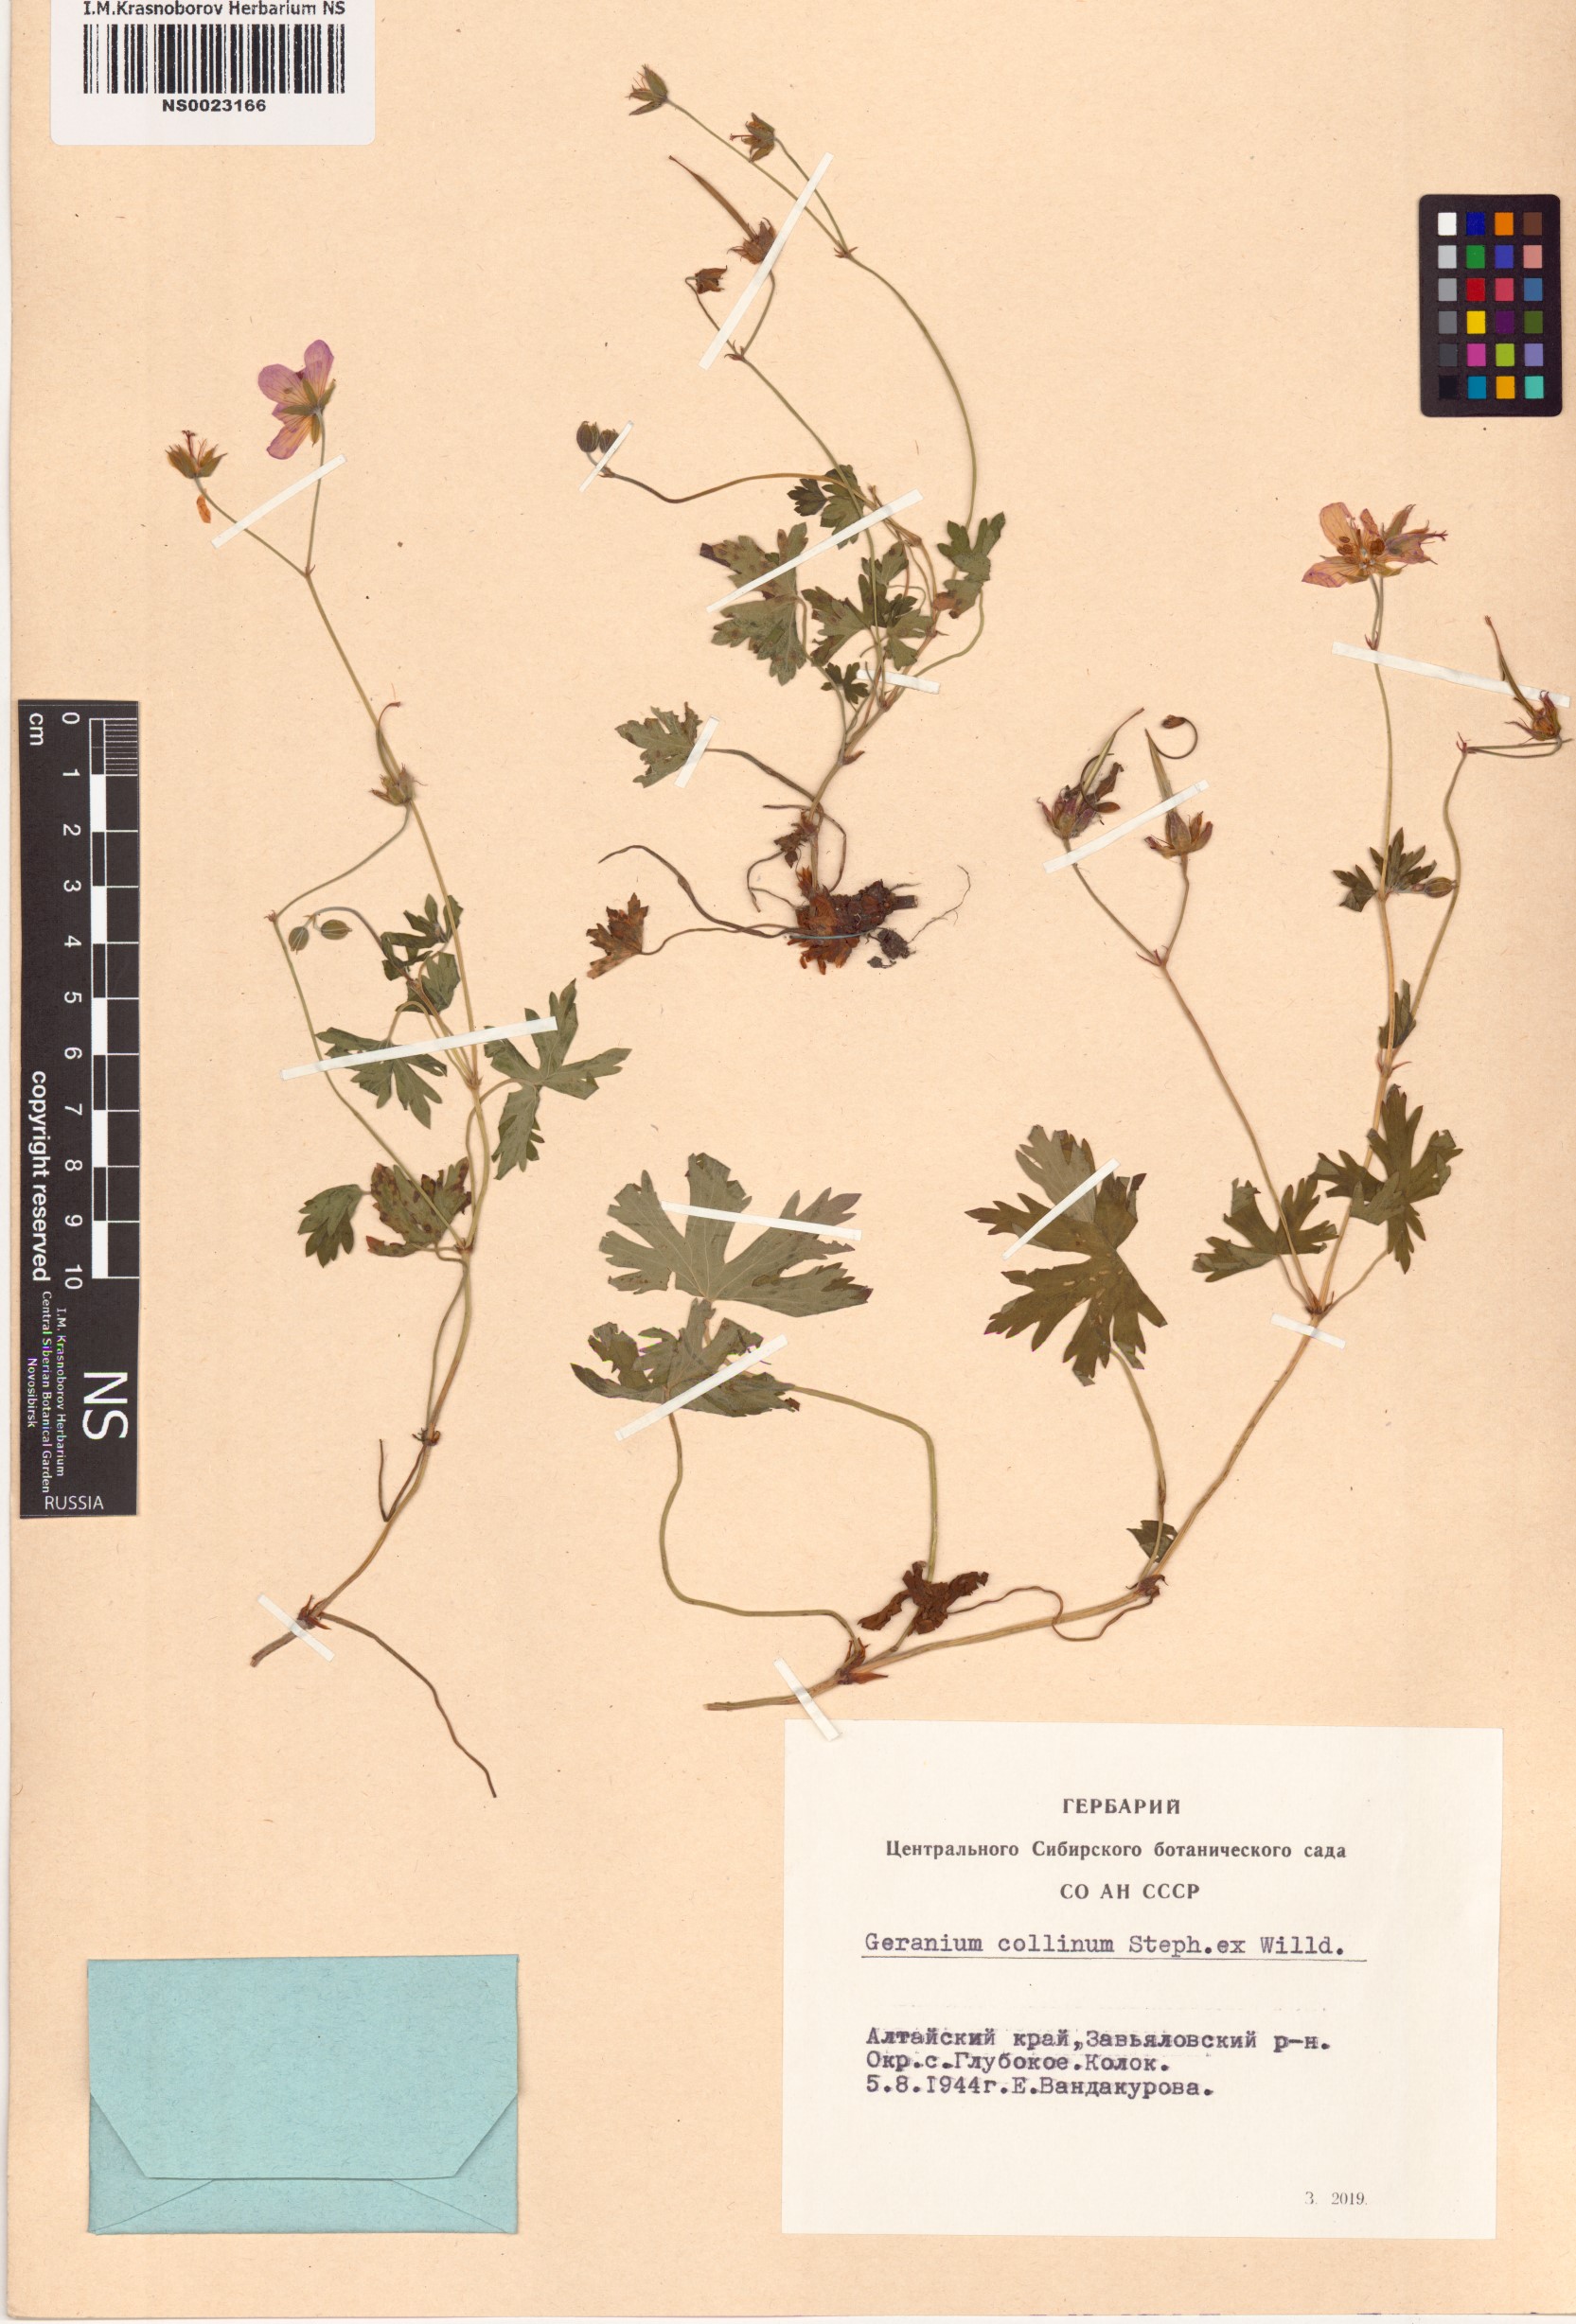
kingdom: Plantae
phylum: Tracheophyta
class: Magnoliopsida
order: Geraniales
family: Geraniaceae
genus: Geranium
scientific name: Geranium collinum
